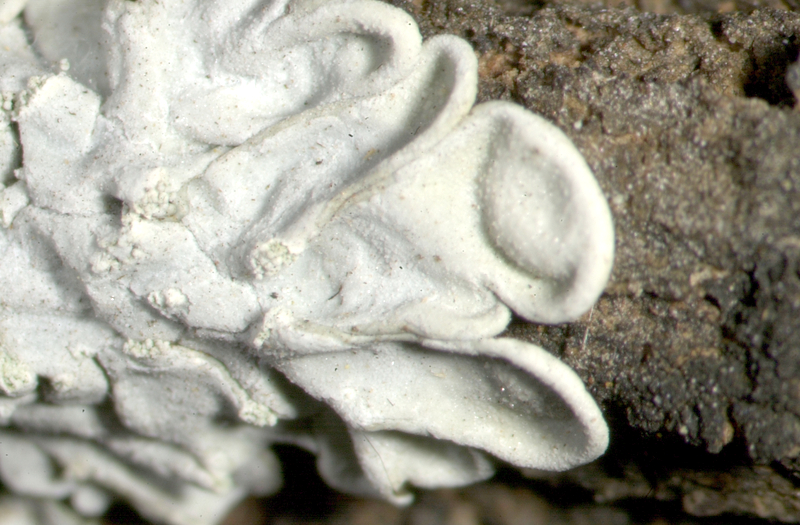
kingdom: Fungi
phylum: Ascomycota
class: Lecanoromycetes
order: Caliciales
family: Caliciaceae
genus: Pyxine
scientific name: Pyxine cocoes
